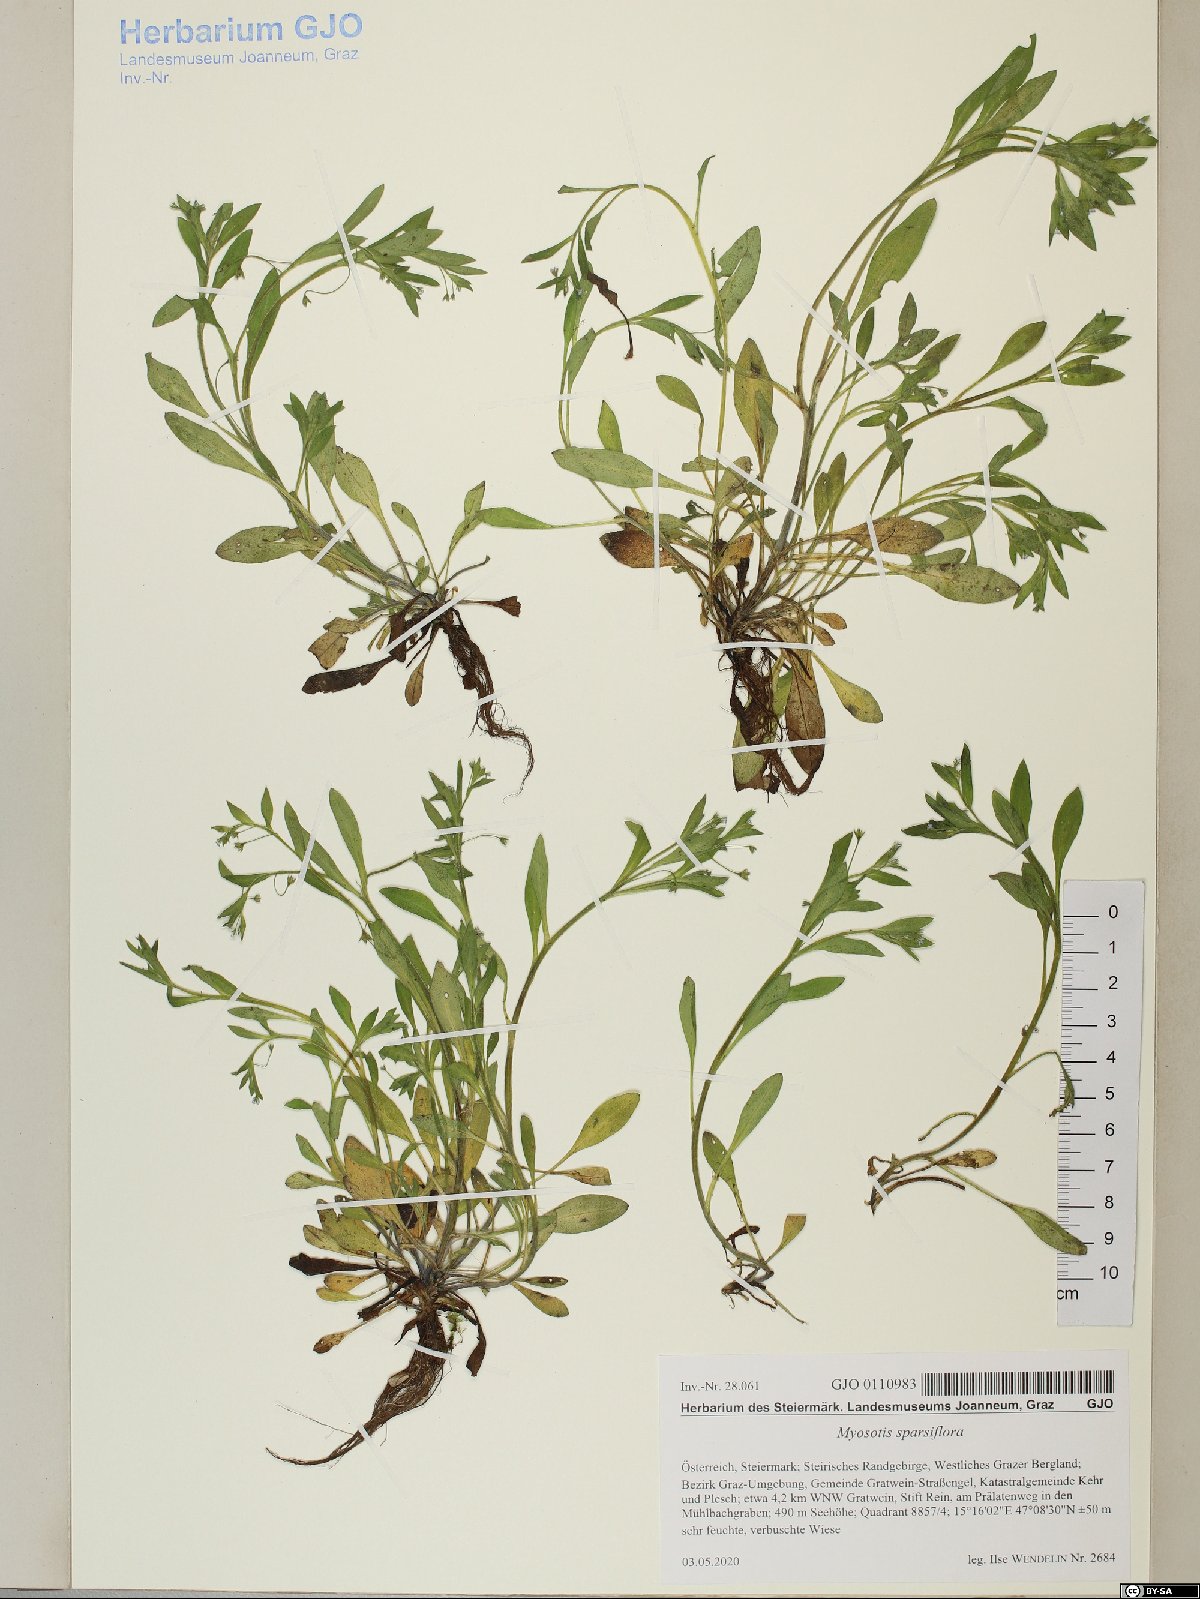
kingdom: Plantae
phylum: Tracheophyta
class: Magnoliopsida
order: Boraginales
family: Boraginaceae
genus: Myosotis
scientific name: Myosotis sparsiflora
